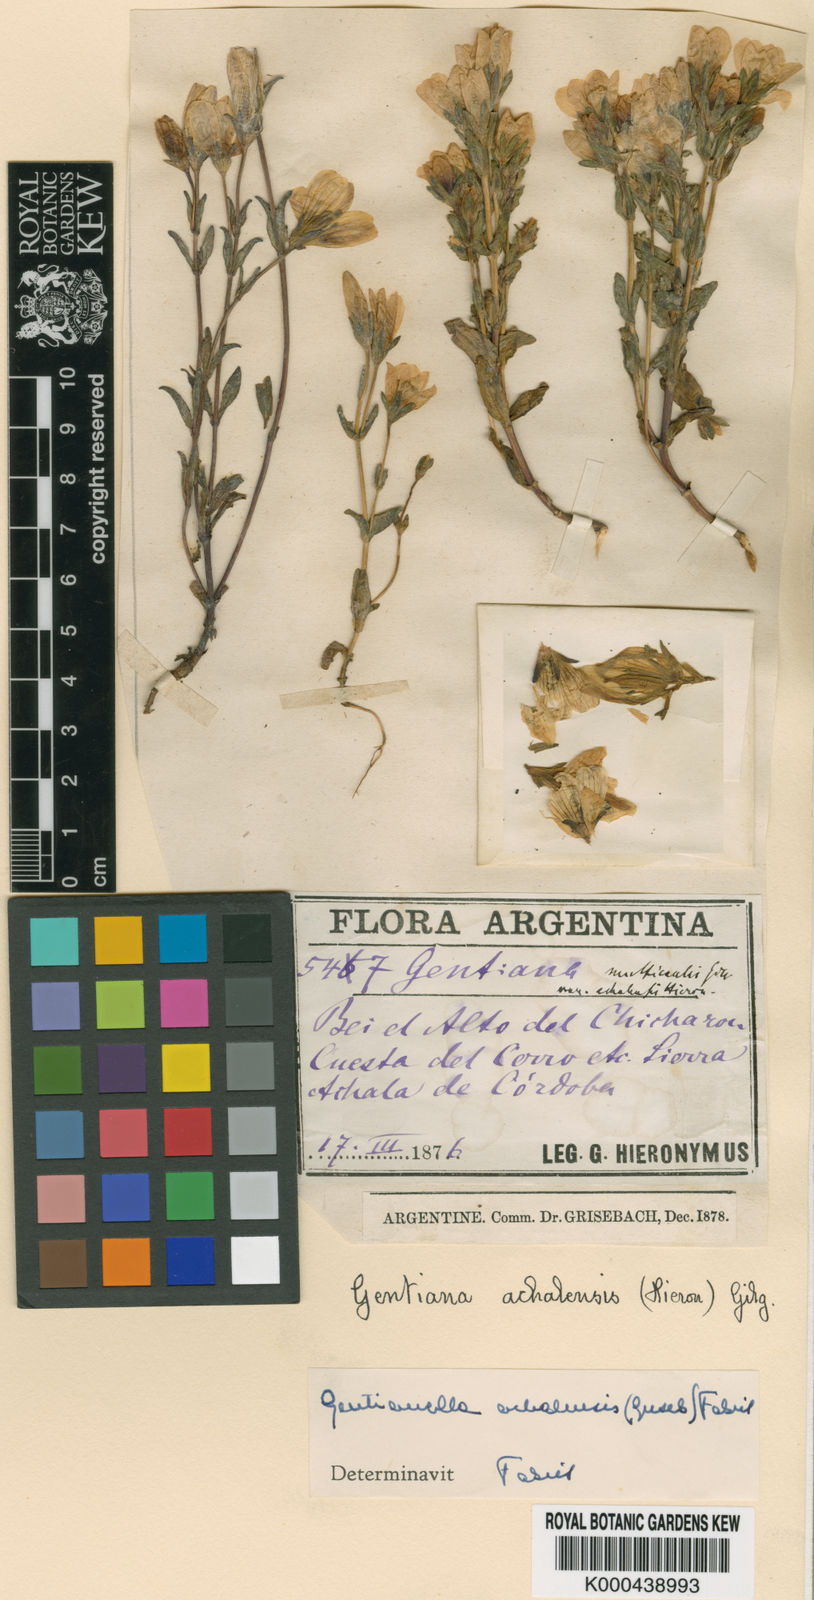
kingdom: Plantae
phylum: Tracheophyta
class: Magnoliopsida
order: Gentianales
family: Gentianaceae
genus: Gentianella
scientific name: Gentianella multicaulis
